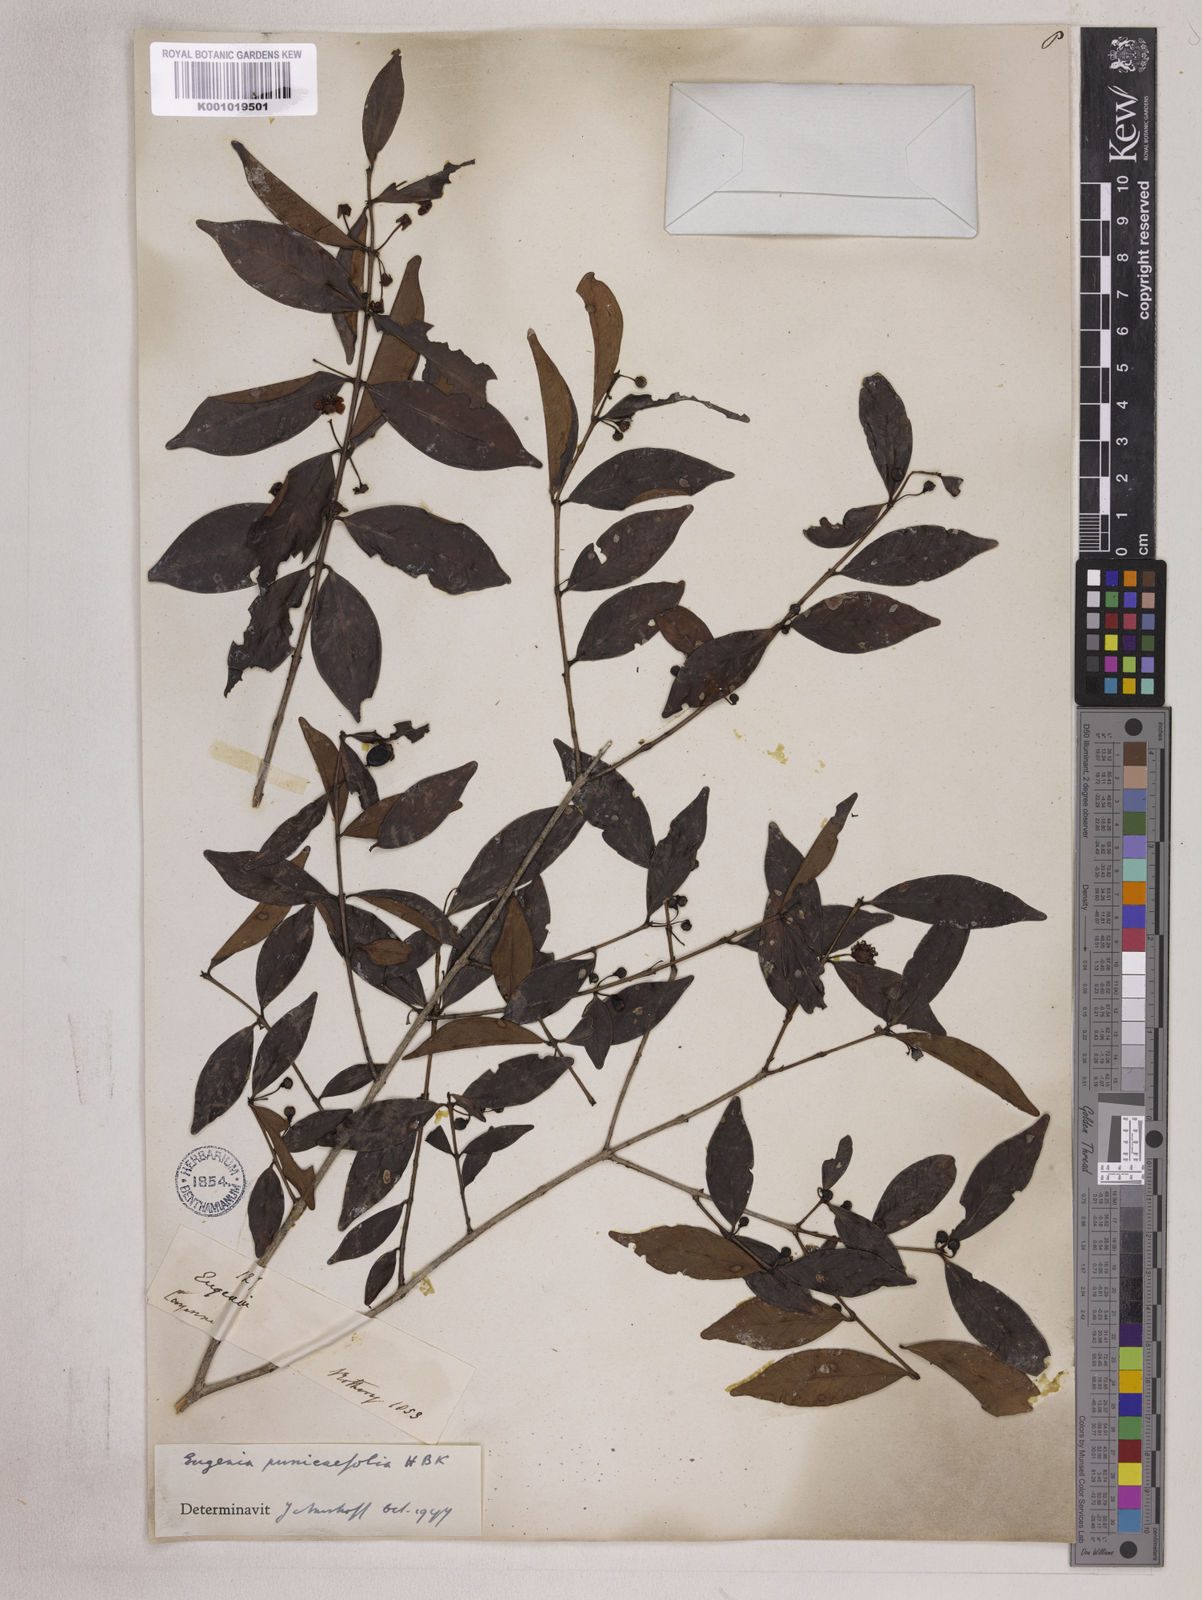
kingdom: Plantae
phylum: Tracheophyta
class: Magnoliopsida
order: Myrtales
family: Myrtaceae
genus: Eugenia
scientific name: Eugenia punicifolia
